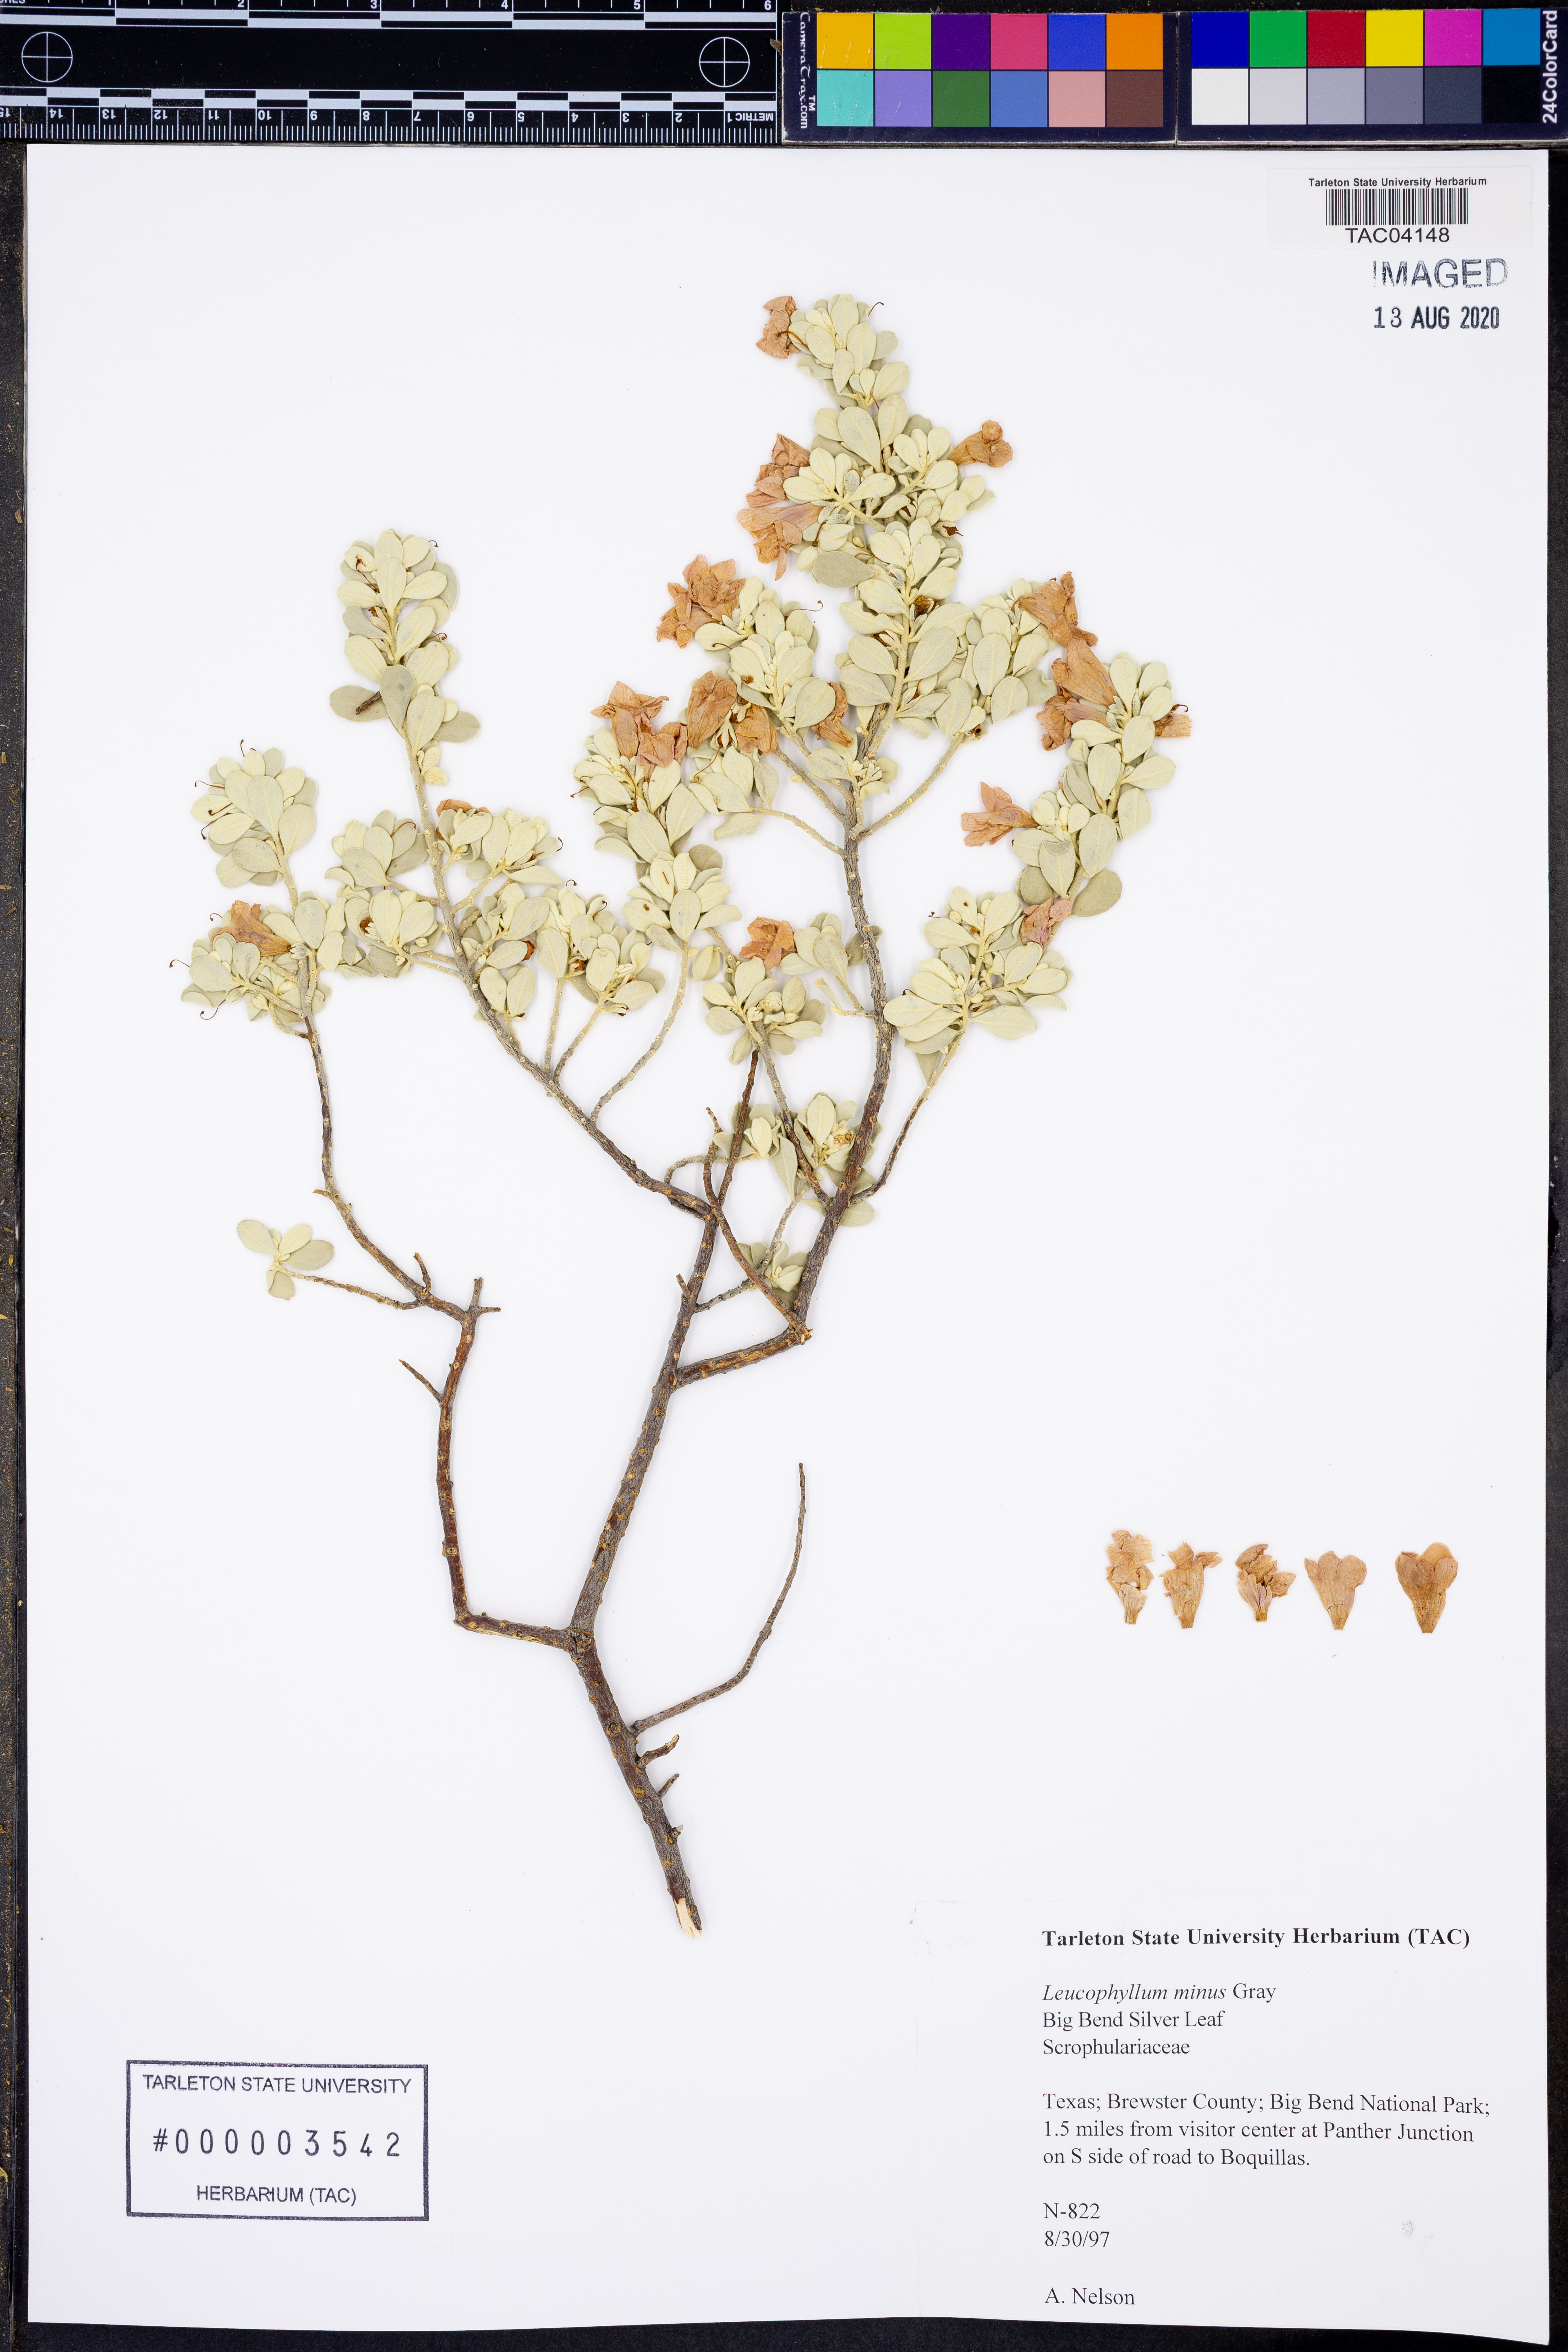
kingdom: Plantae
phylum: Tracheophyta
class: Magnoliopsida
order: Lamiales
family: Scrophulariaceae
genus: Leucophyllum
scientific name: Leucophyllum minus
